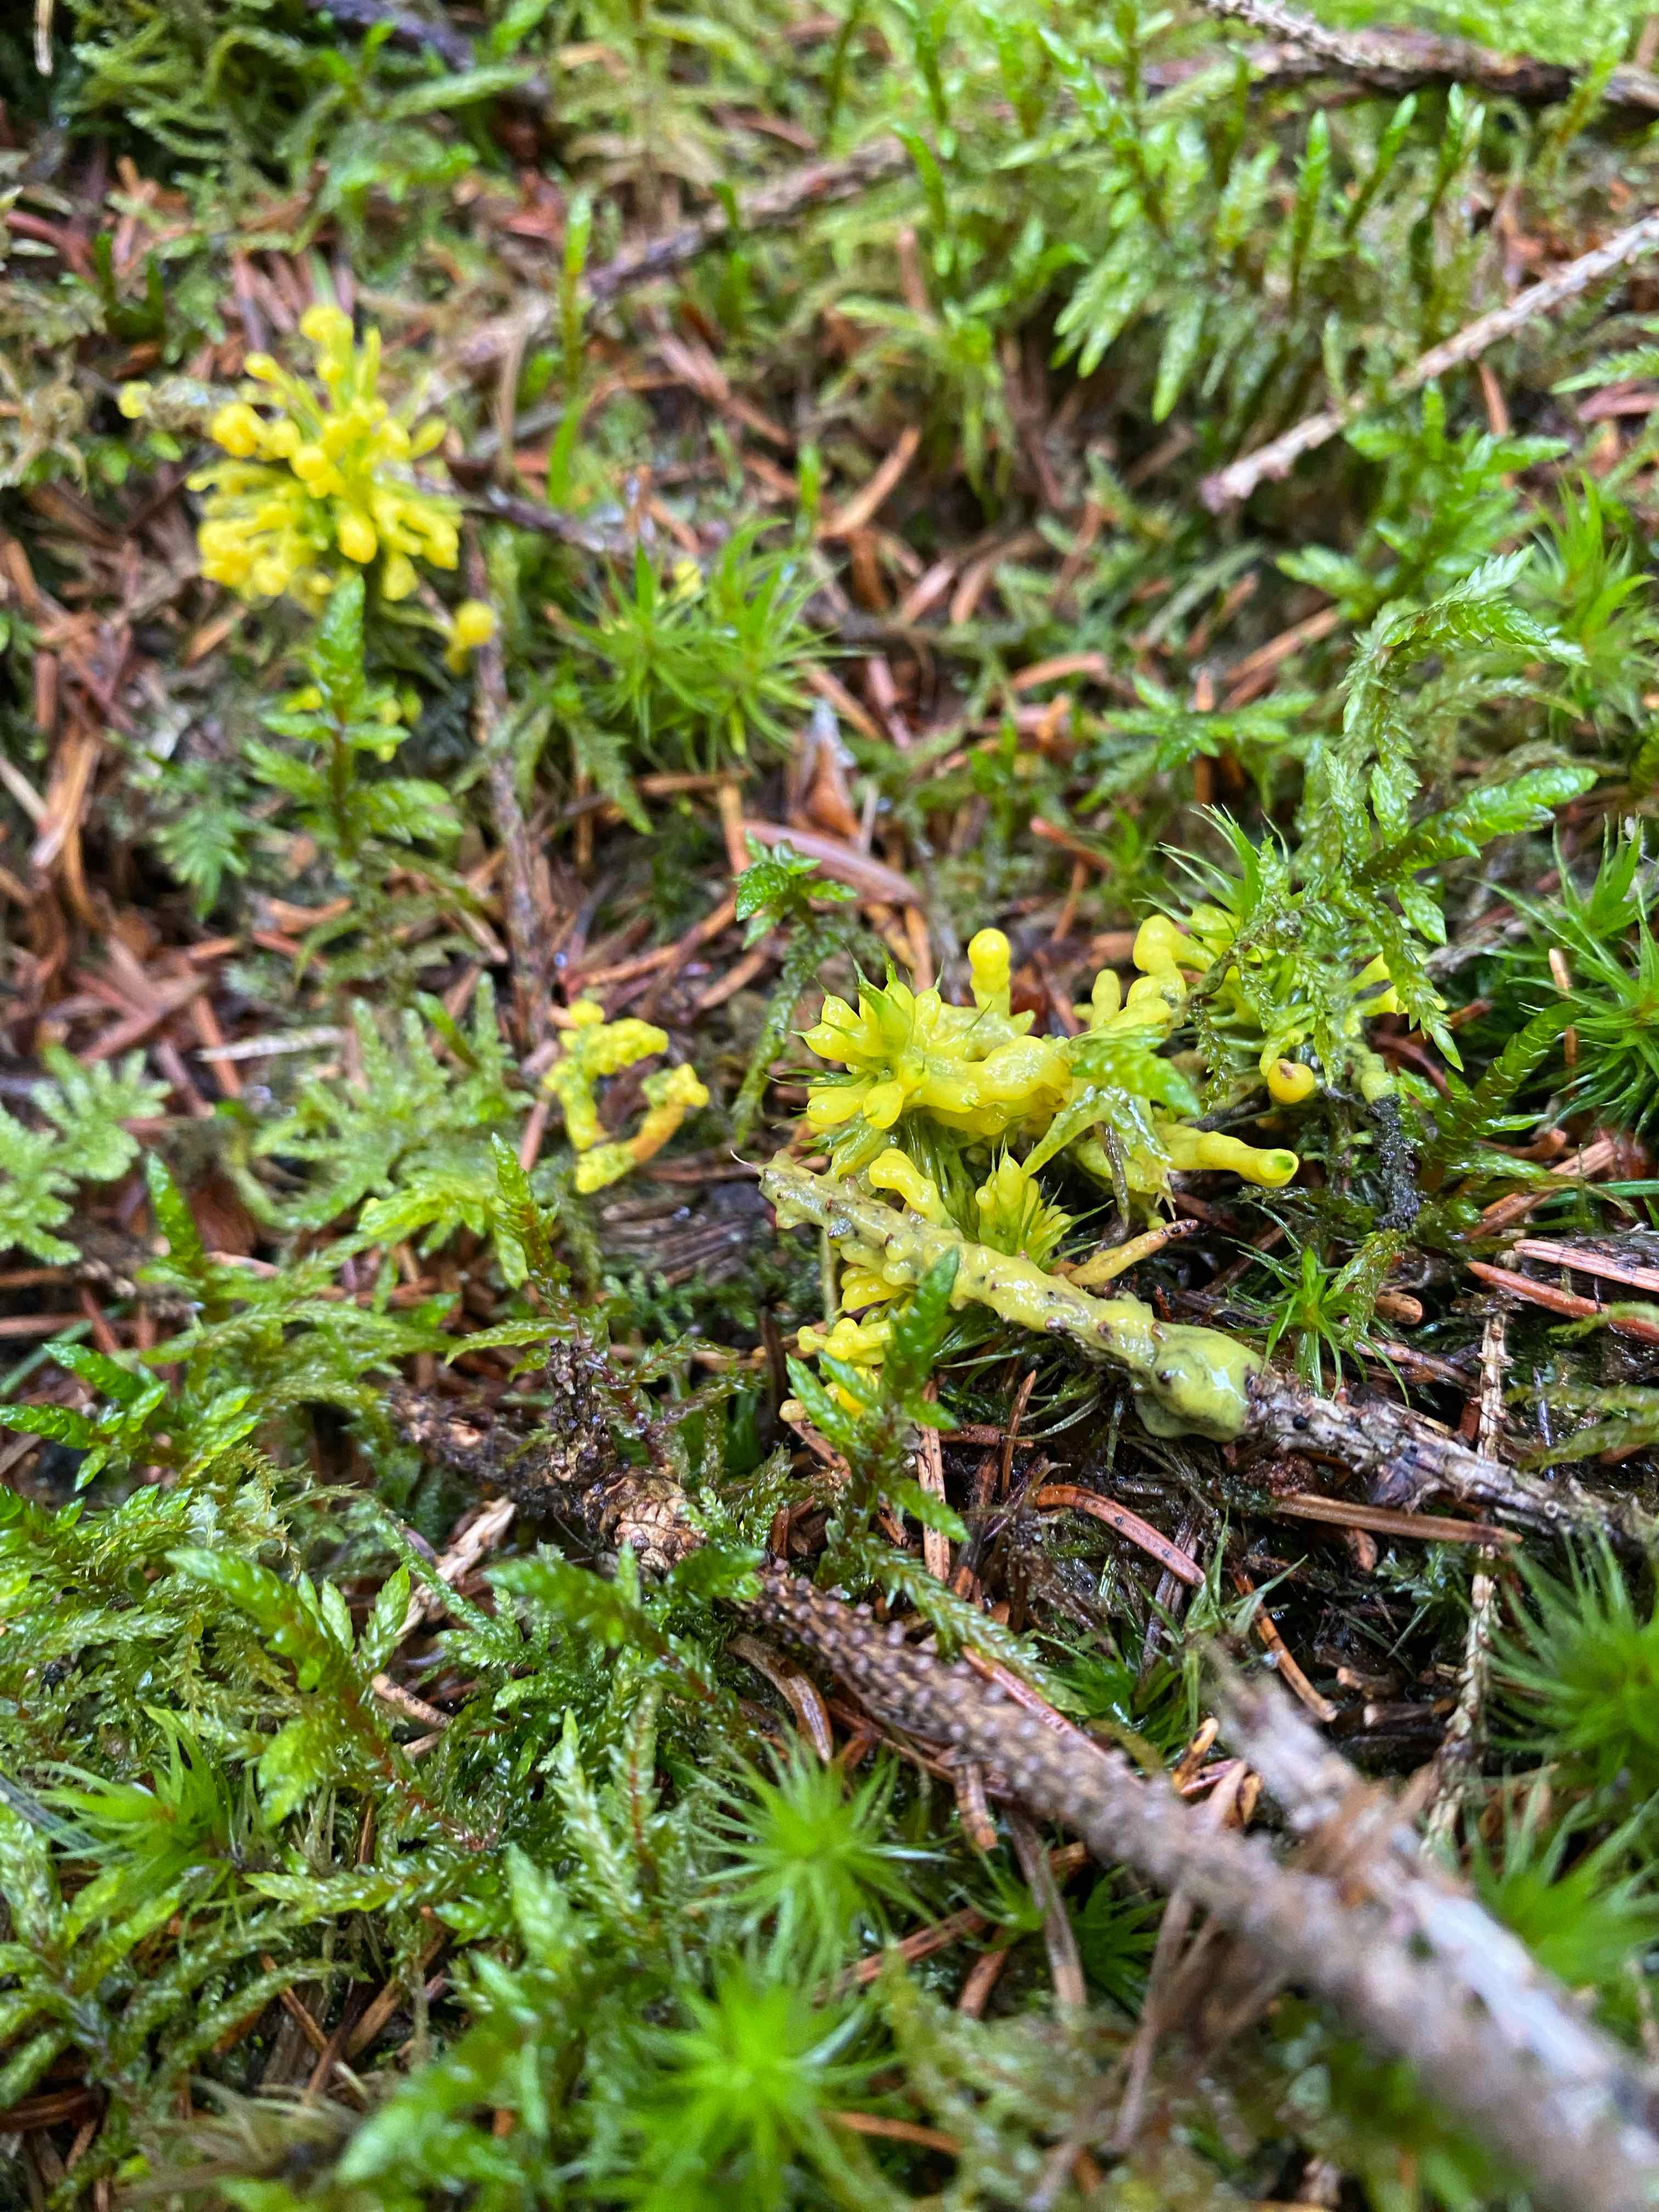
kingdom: Protozoa
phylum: Mycetozoa
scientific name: Mycetozoa
